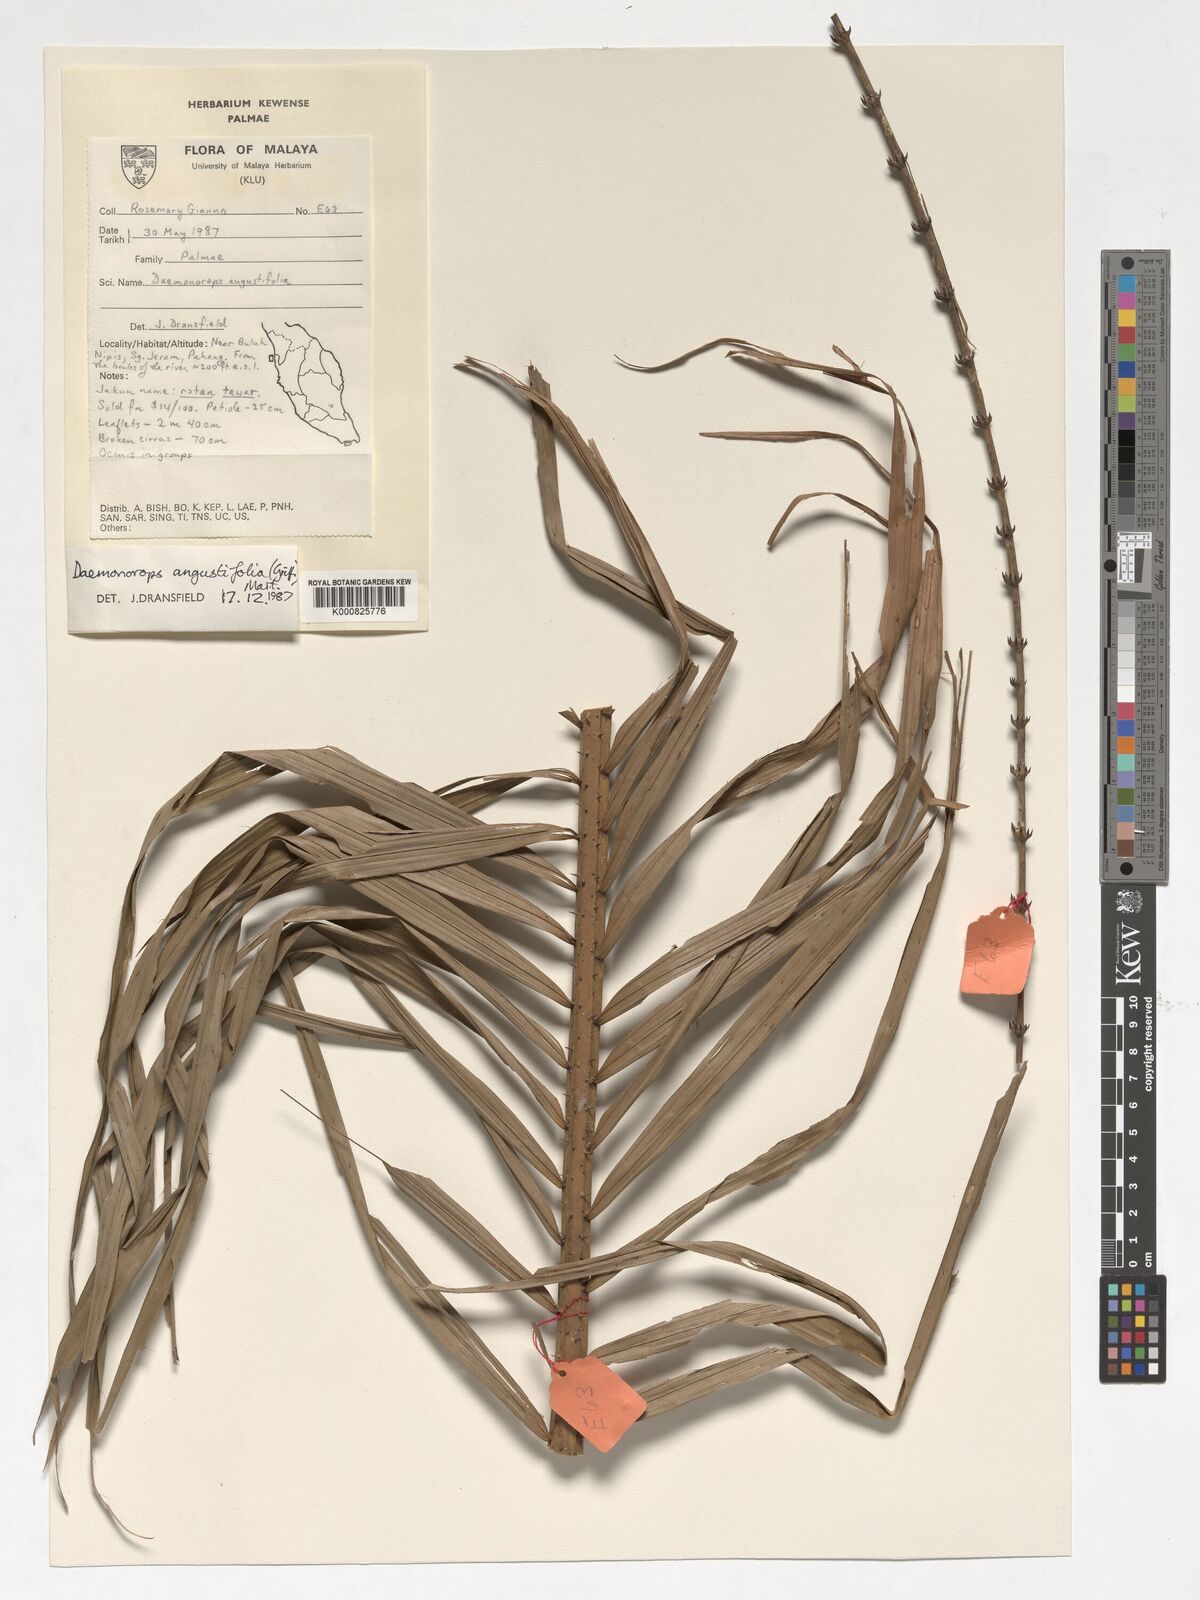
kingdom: Plantae
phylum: Tracheophyta
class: Liliopsida
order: Arecales
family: Arecaceae
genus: Calamus
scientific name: Calamus melanochaetes
